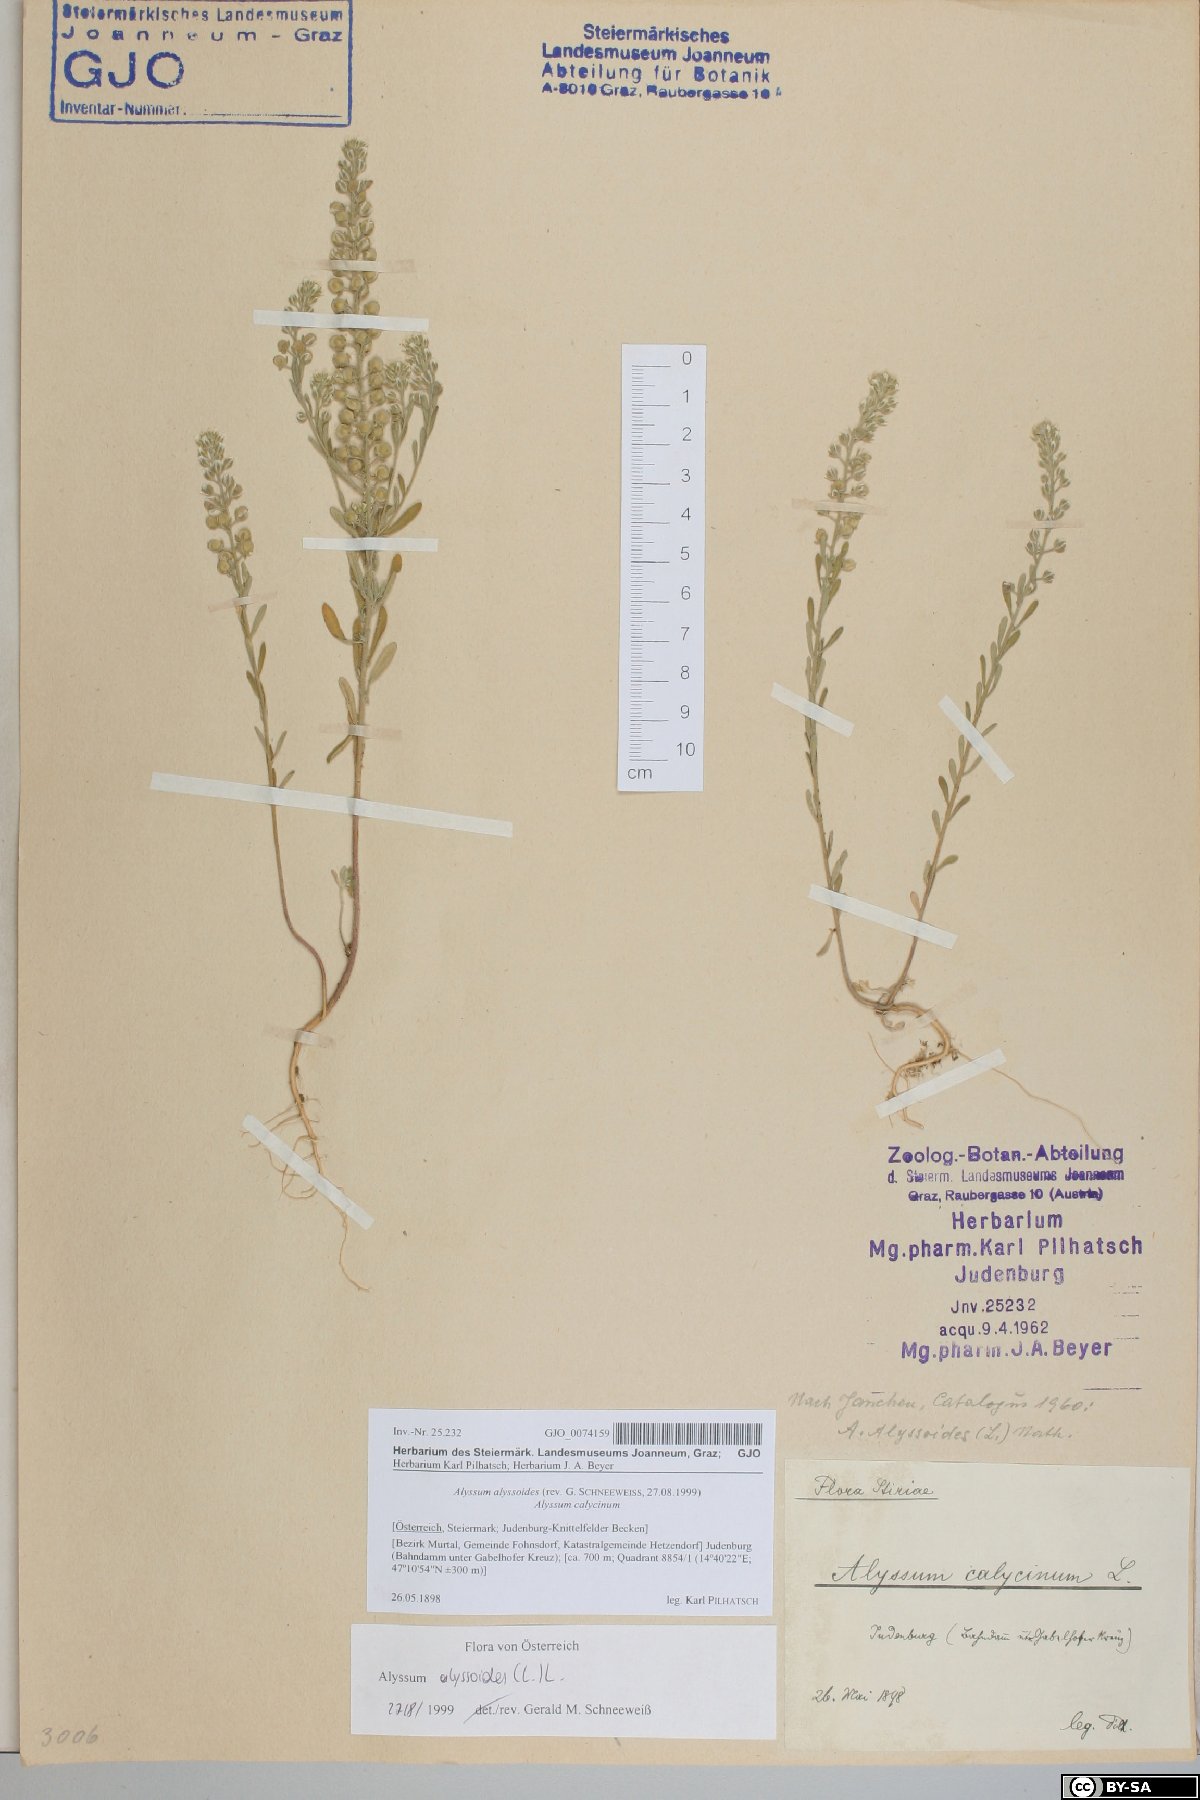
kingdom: Plantae
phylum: Tracheophyta
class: Magnoliopsida
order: Brassicales
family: Brassicaceae
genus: Alyssum
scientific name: Alyssum alyssoides
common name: Small alison
